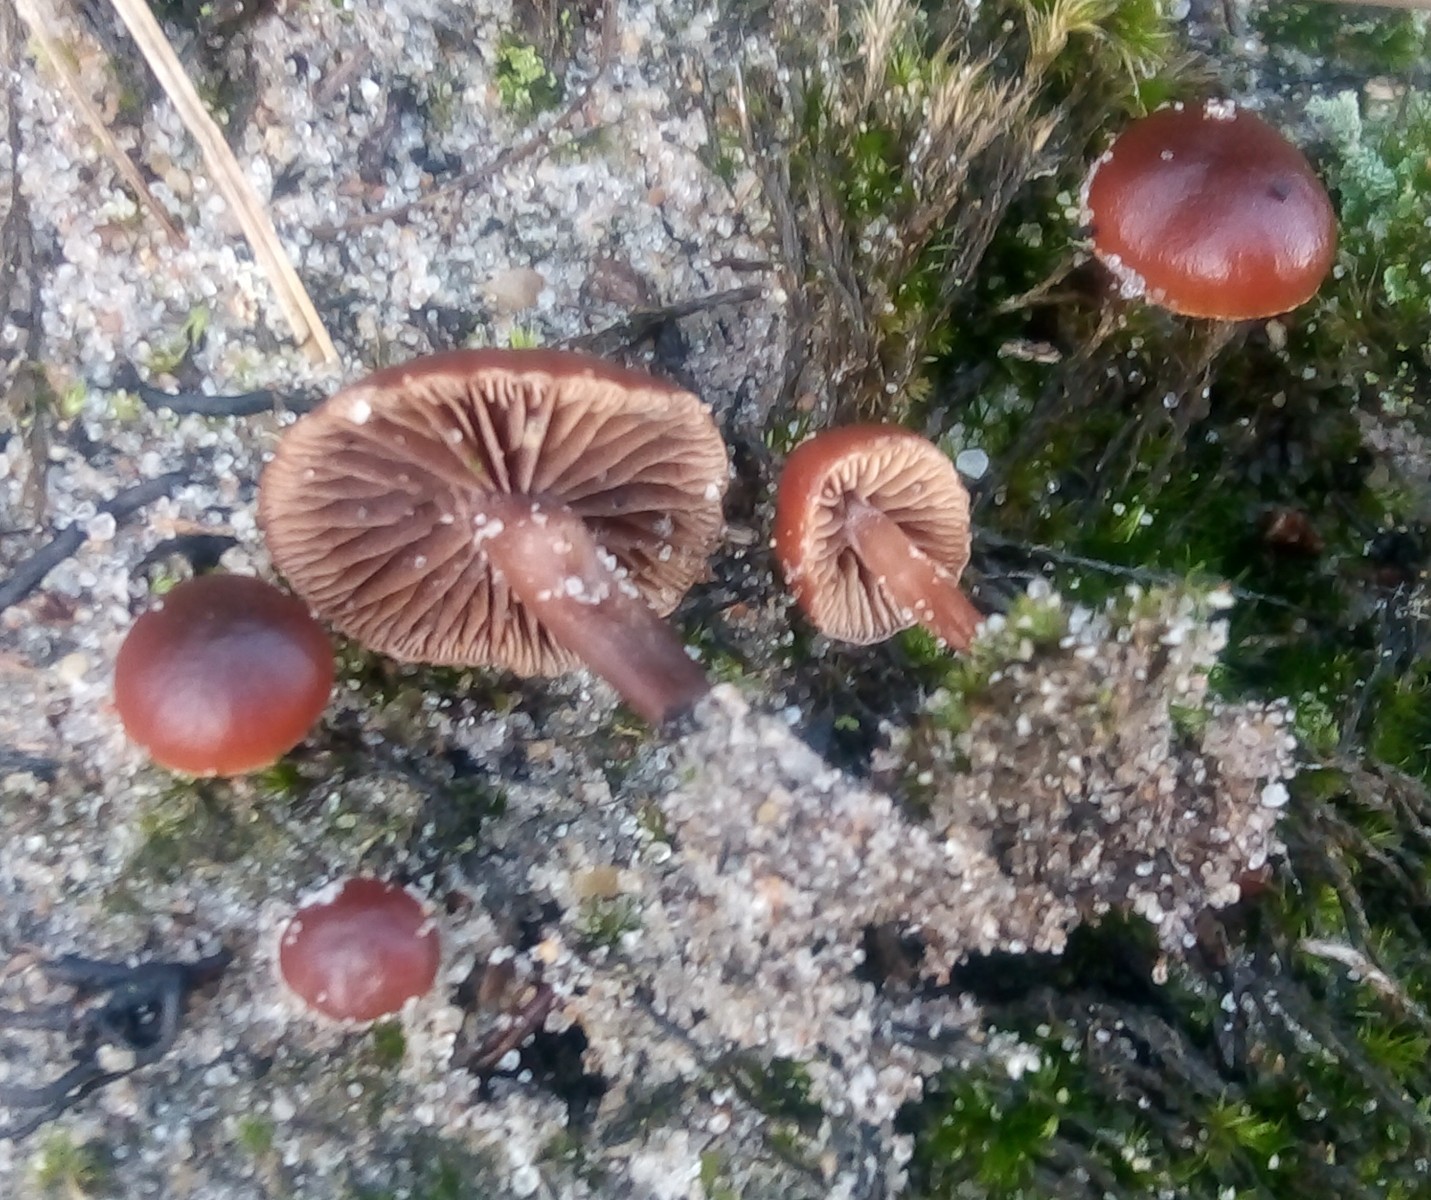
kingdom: Fungi
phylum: Basidiomycota
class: Agaricomycetes
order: Agaricales
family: Strophariaceae
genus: Deconica
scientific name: Deconica montana
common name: rødbrun stråhat
